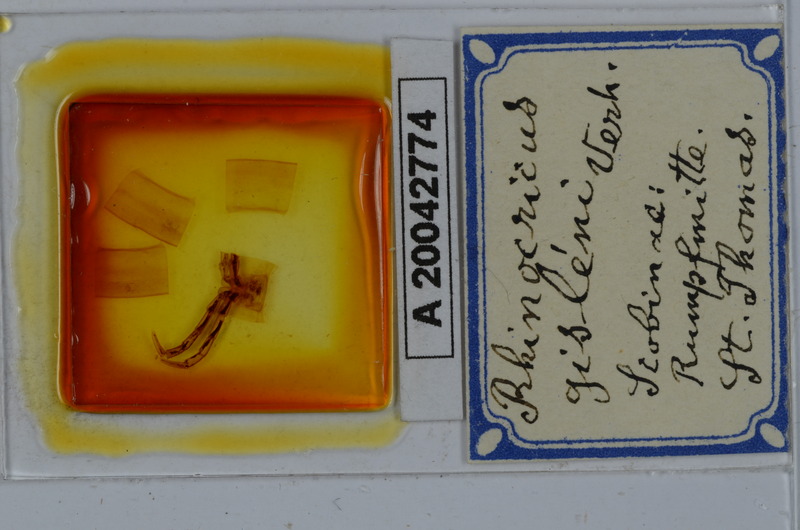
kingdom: Animalia
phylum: Arthropoda
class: Diplopoda
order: Spirobolida
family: Rhinocricidae
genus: Anadenobolus
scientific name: Anadenobolus gisleni
